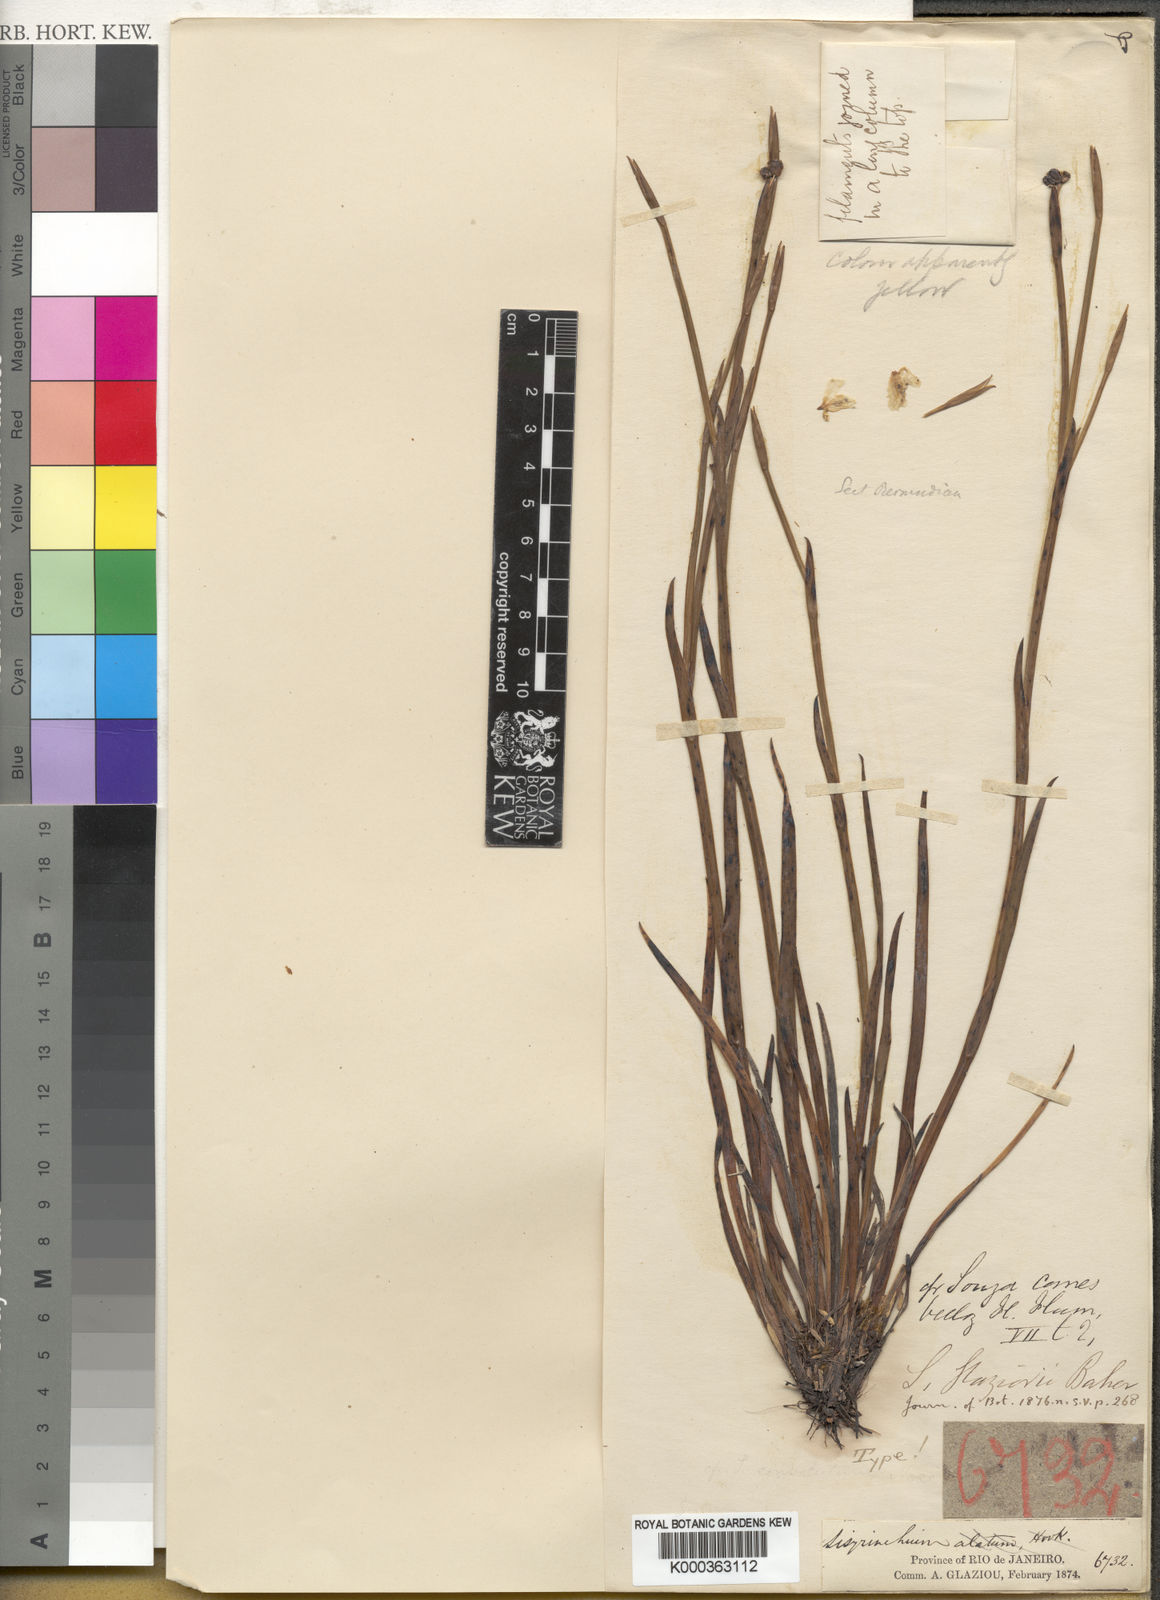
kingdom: Plantae
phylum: Tracheophyta
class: Liliopsida
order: Asparagales
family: Iridaceae
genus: Sisyrinchium
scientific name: Sisyrinchium glaziovii
